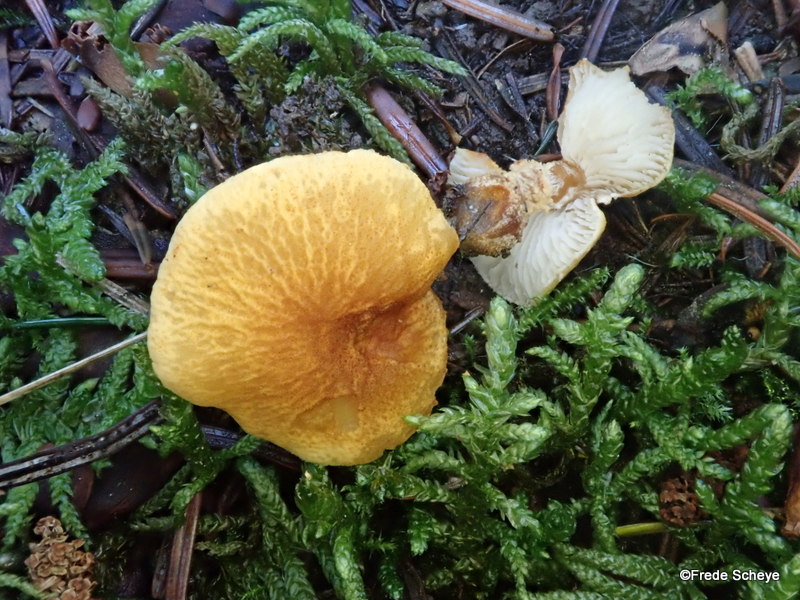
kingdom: Fungi
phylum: Basidiomycota
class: Agaricomycetes
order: Agaricales
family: Tricholomataceae
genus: Cystoderma
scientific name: Cystoderma amianthinum
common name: okkergul grynhat
